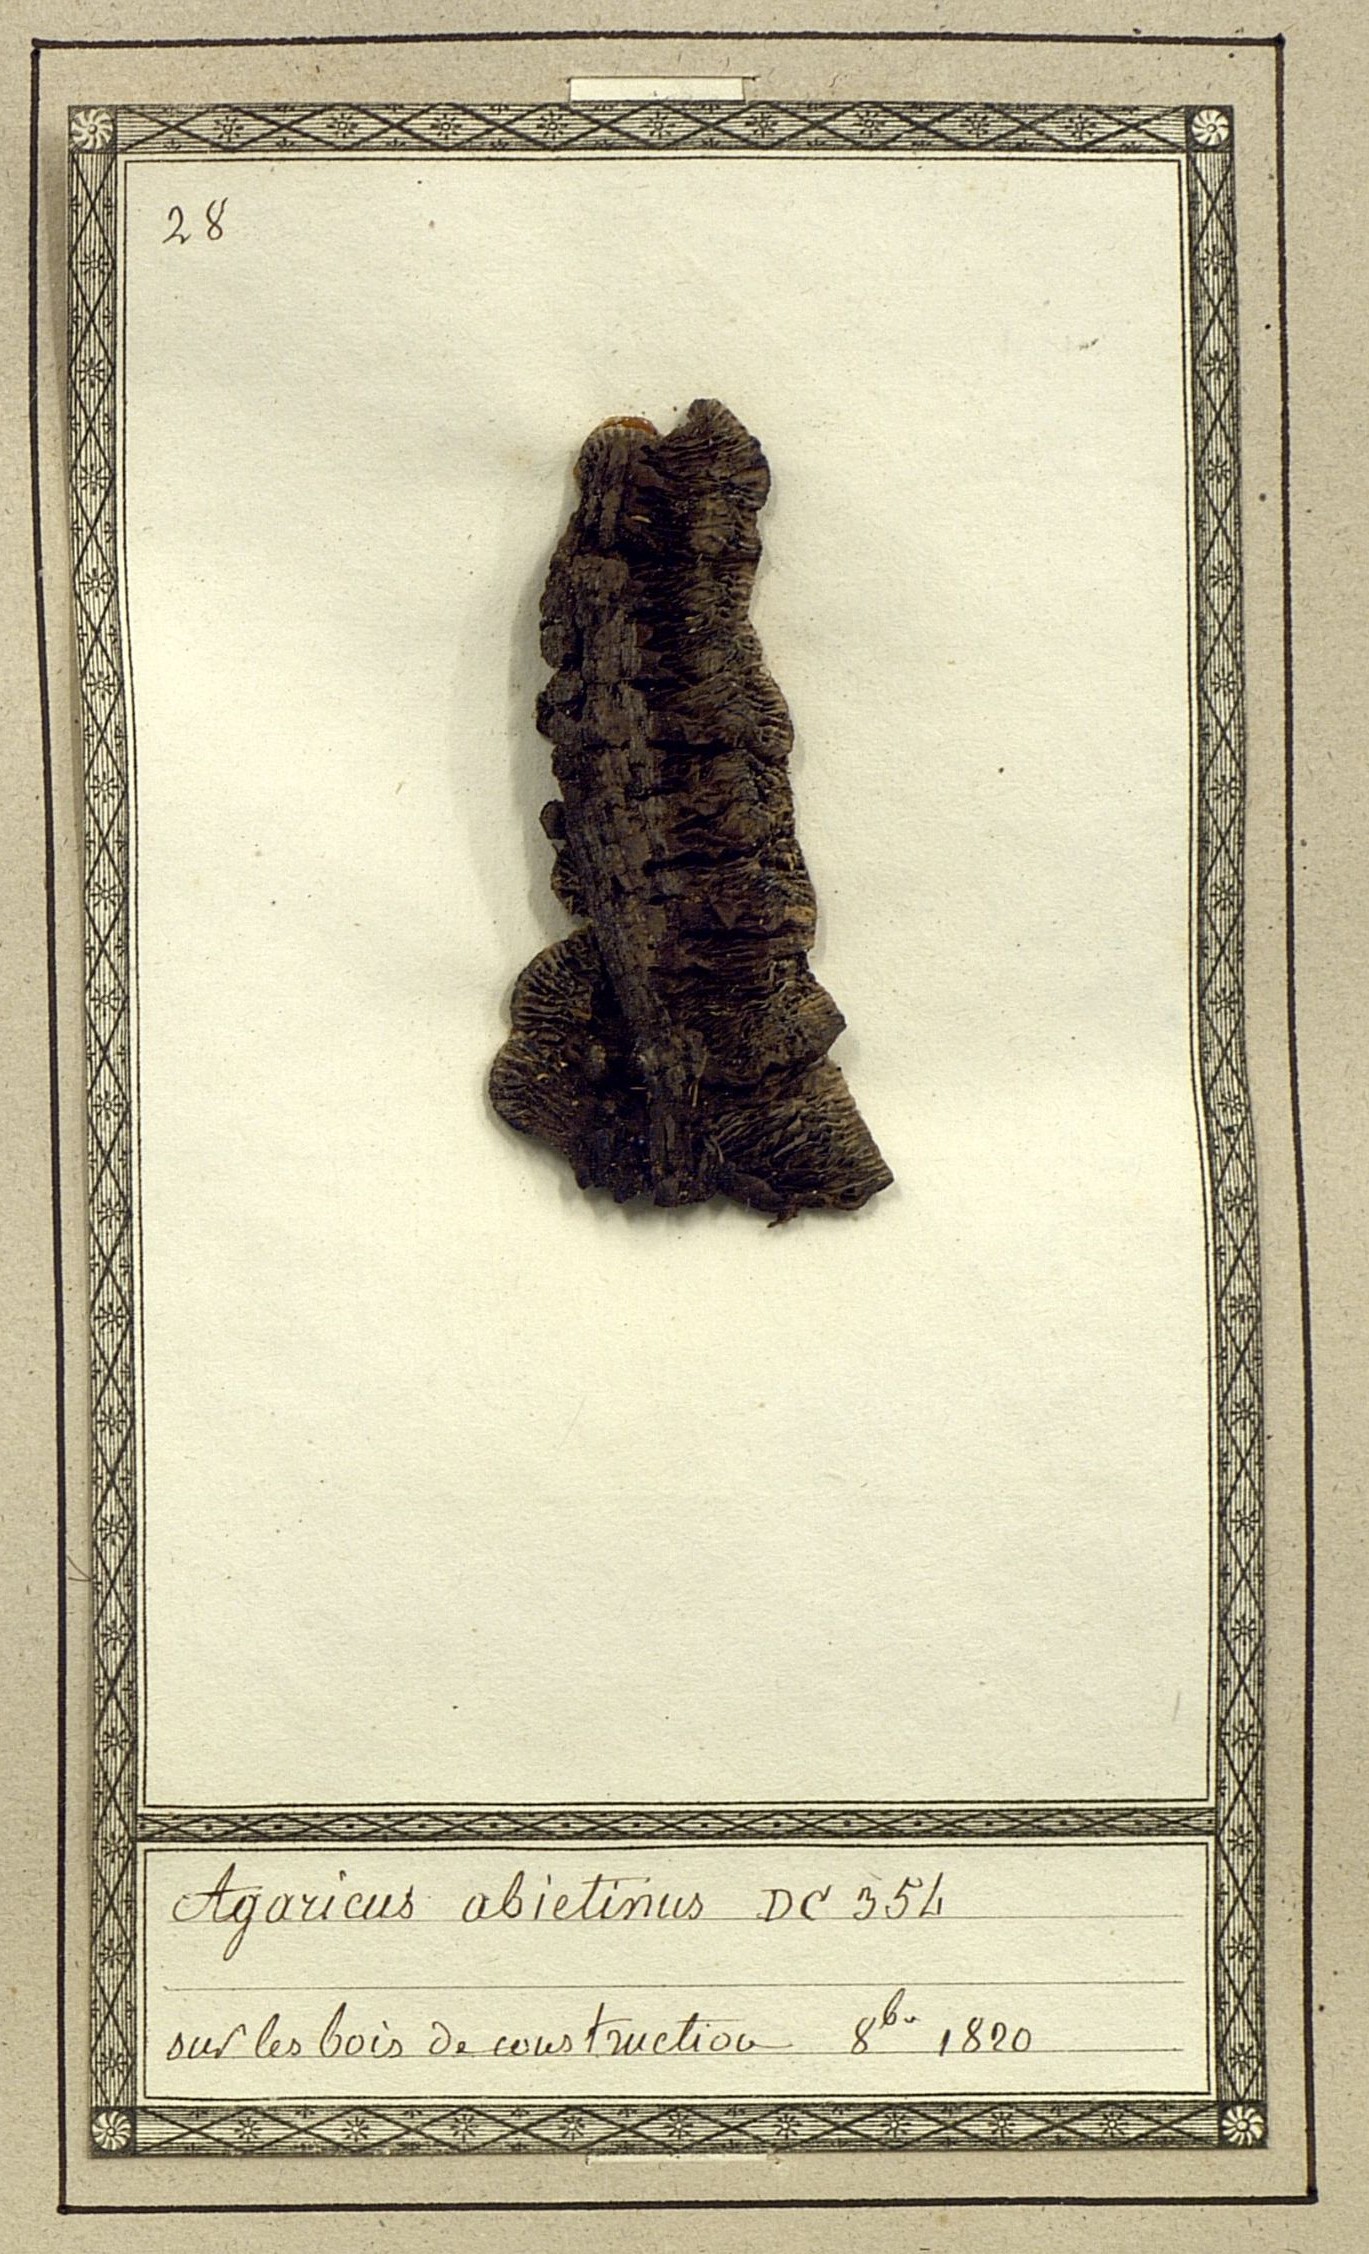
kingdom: Fungi
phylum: Basidiomycota
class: Agaricomycetes
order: Agaricales
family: Pleurotaceae
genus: Geopetalum
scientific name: Geopetalum abietinum
